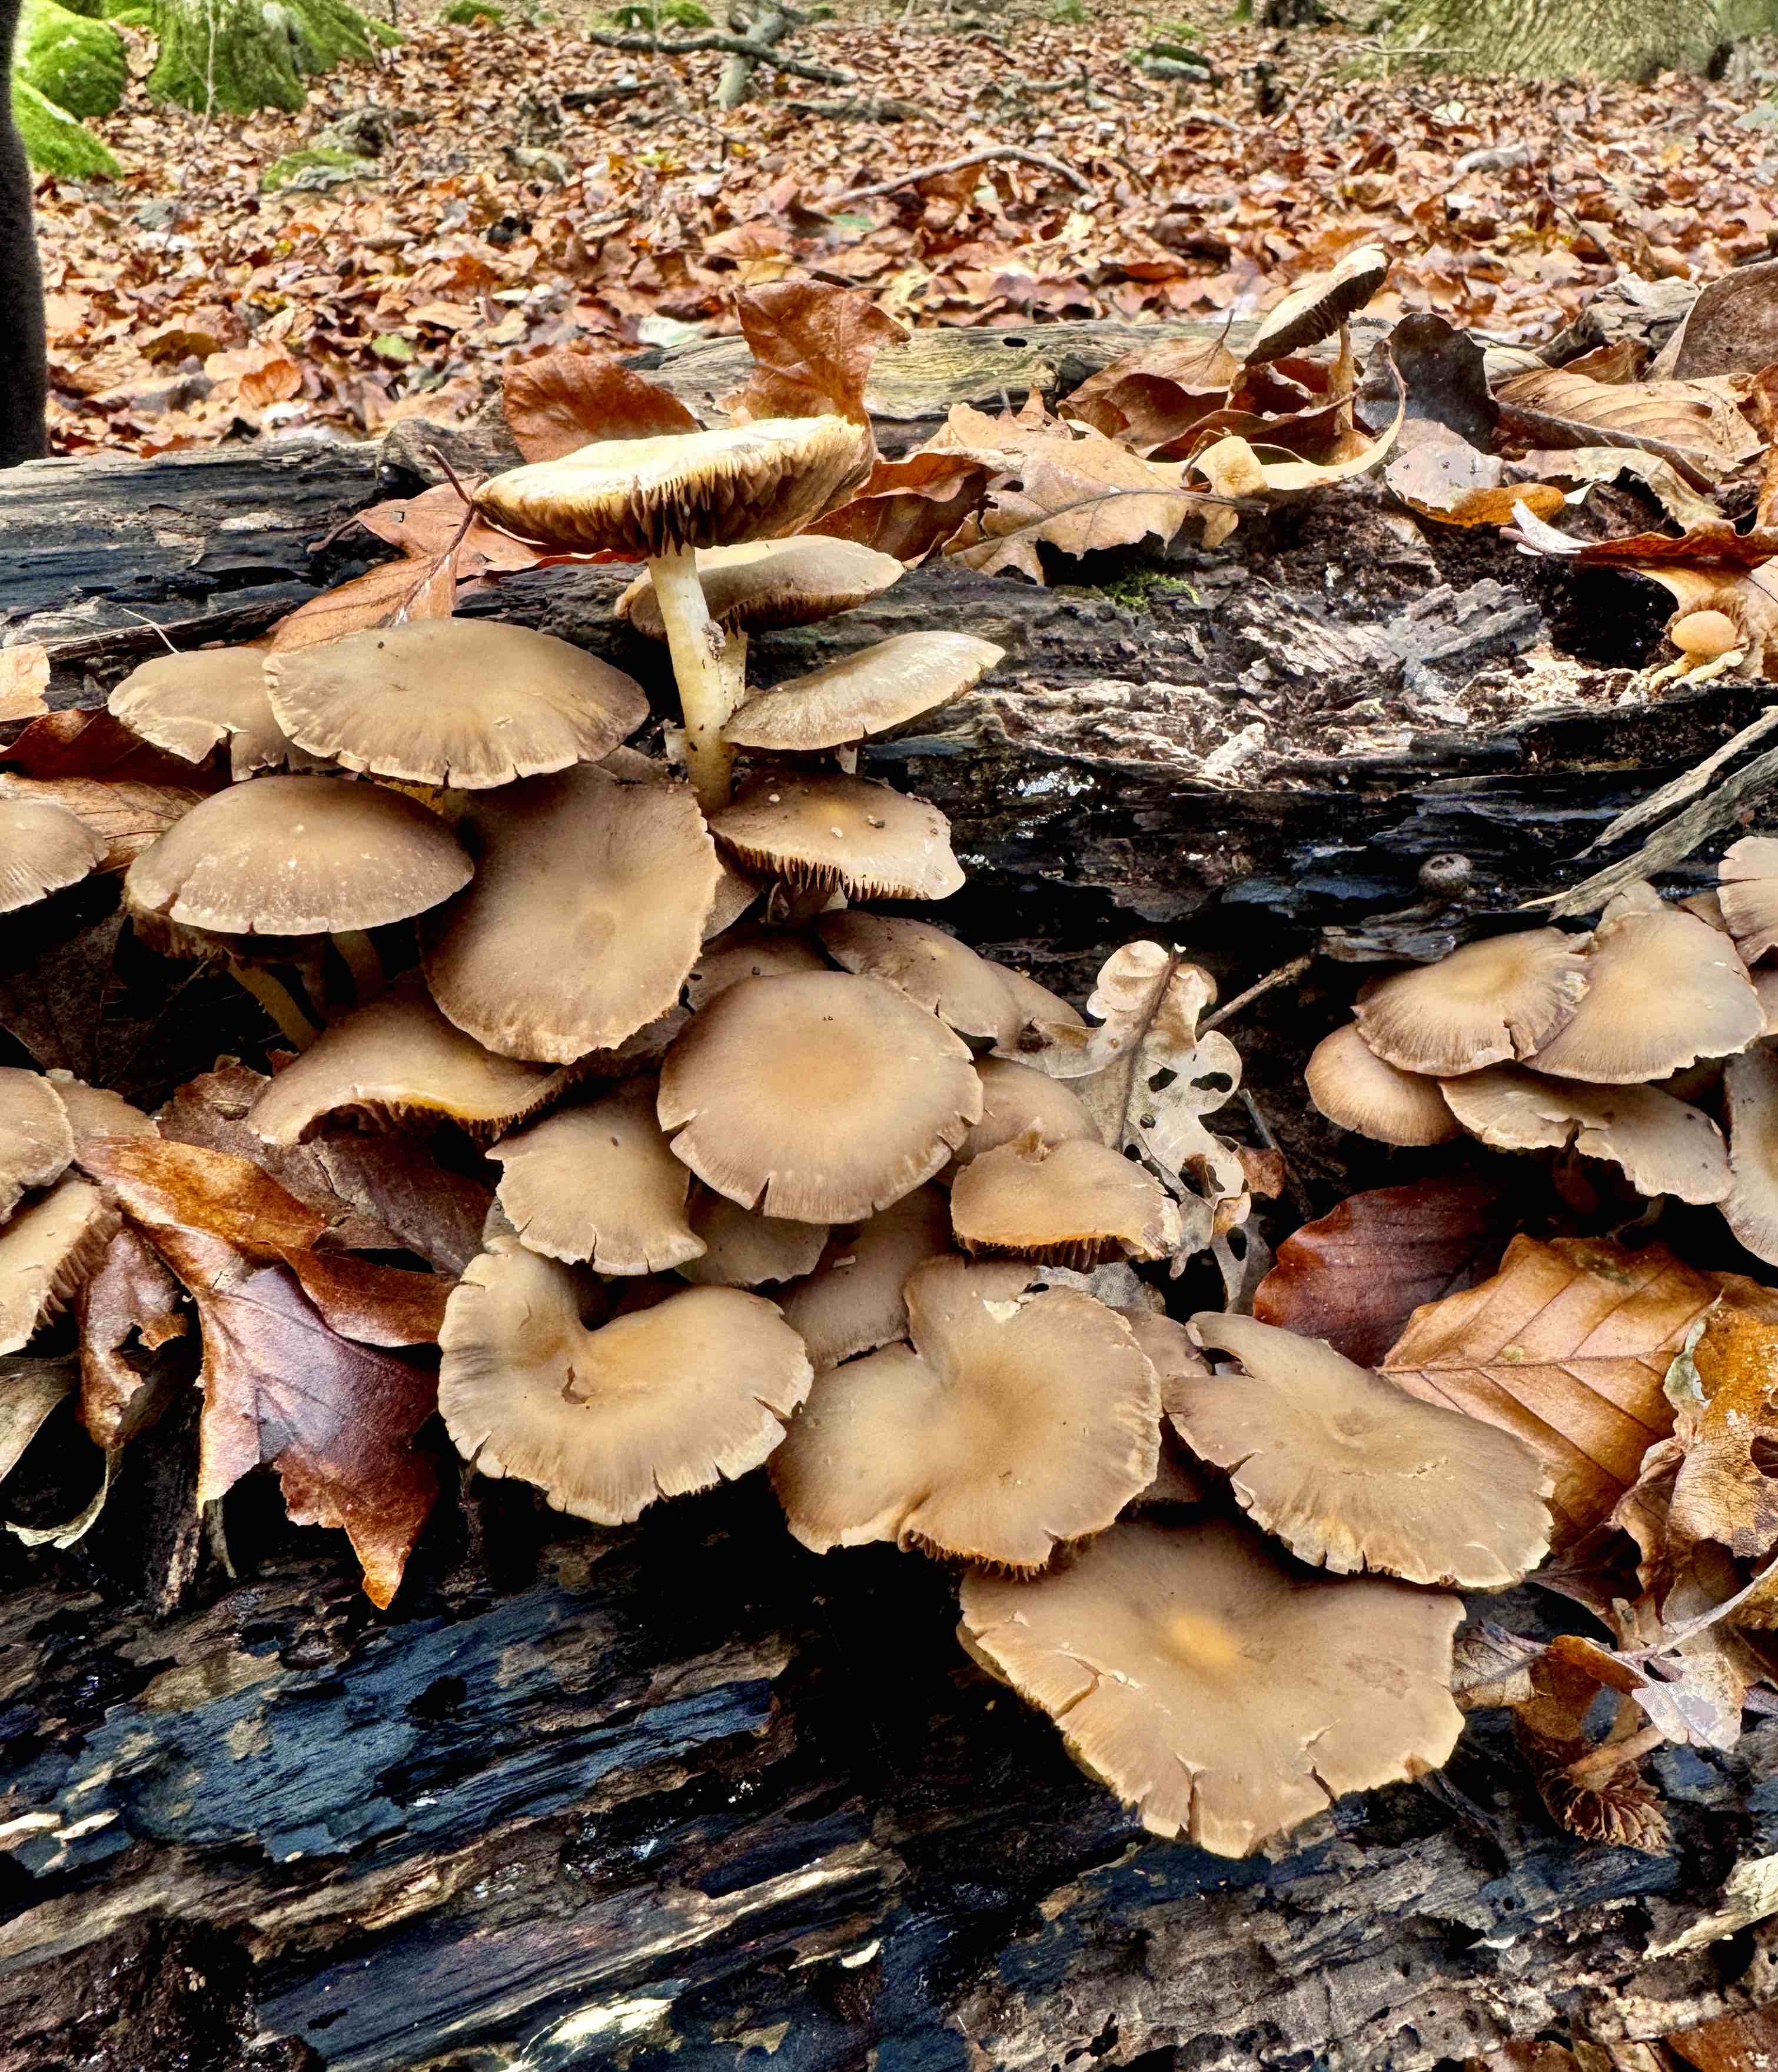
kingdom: Fungi
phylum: Basidiomycota
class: Agaricomycetes
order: Agaricales
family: Psathyrellaceae
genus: Psathyrella
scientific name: Psathyrella piluliformis
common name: lysstokket mørkhat
